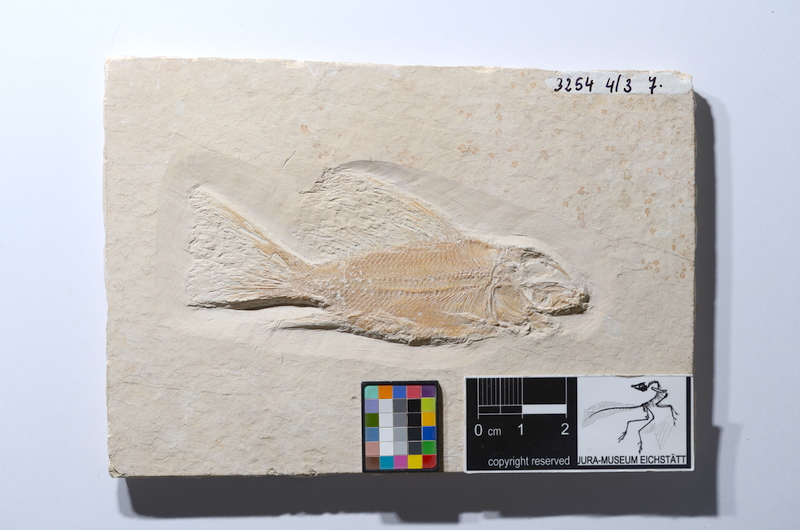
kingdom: Animalia
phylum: Chordata
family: Macrosemiidae
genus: Propterus
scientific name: Propterus microstomus
